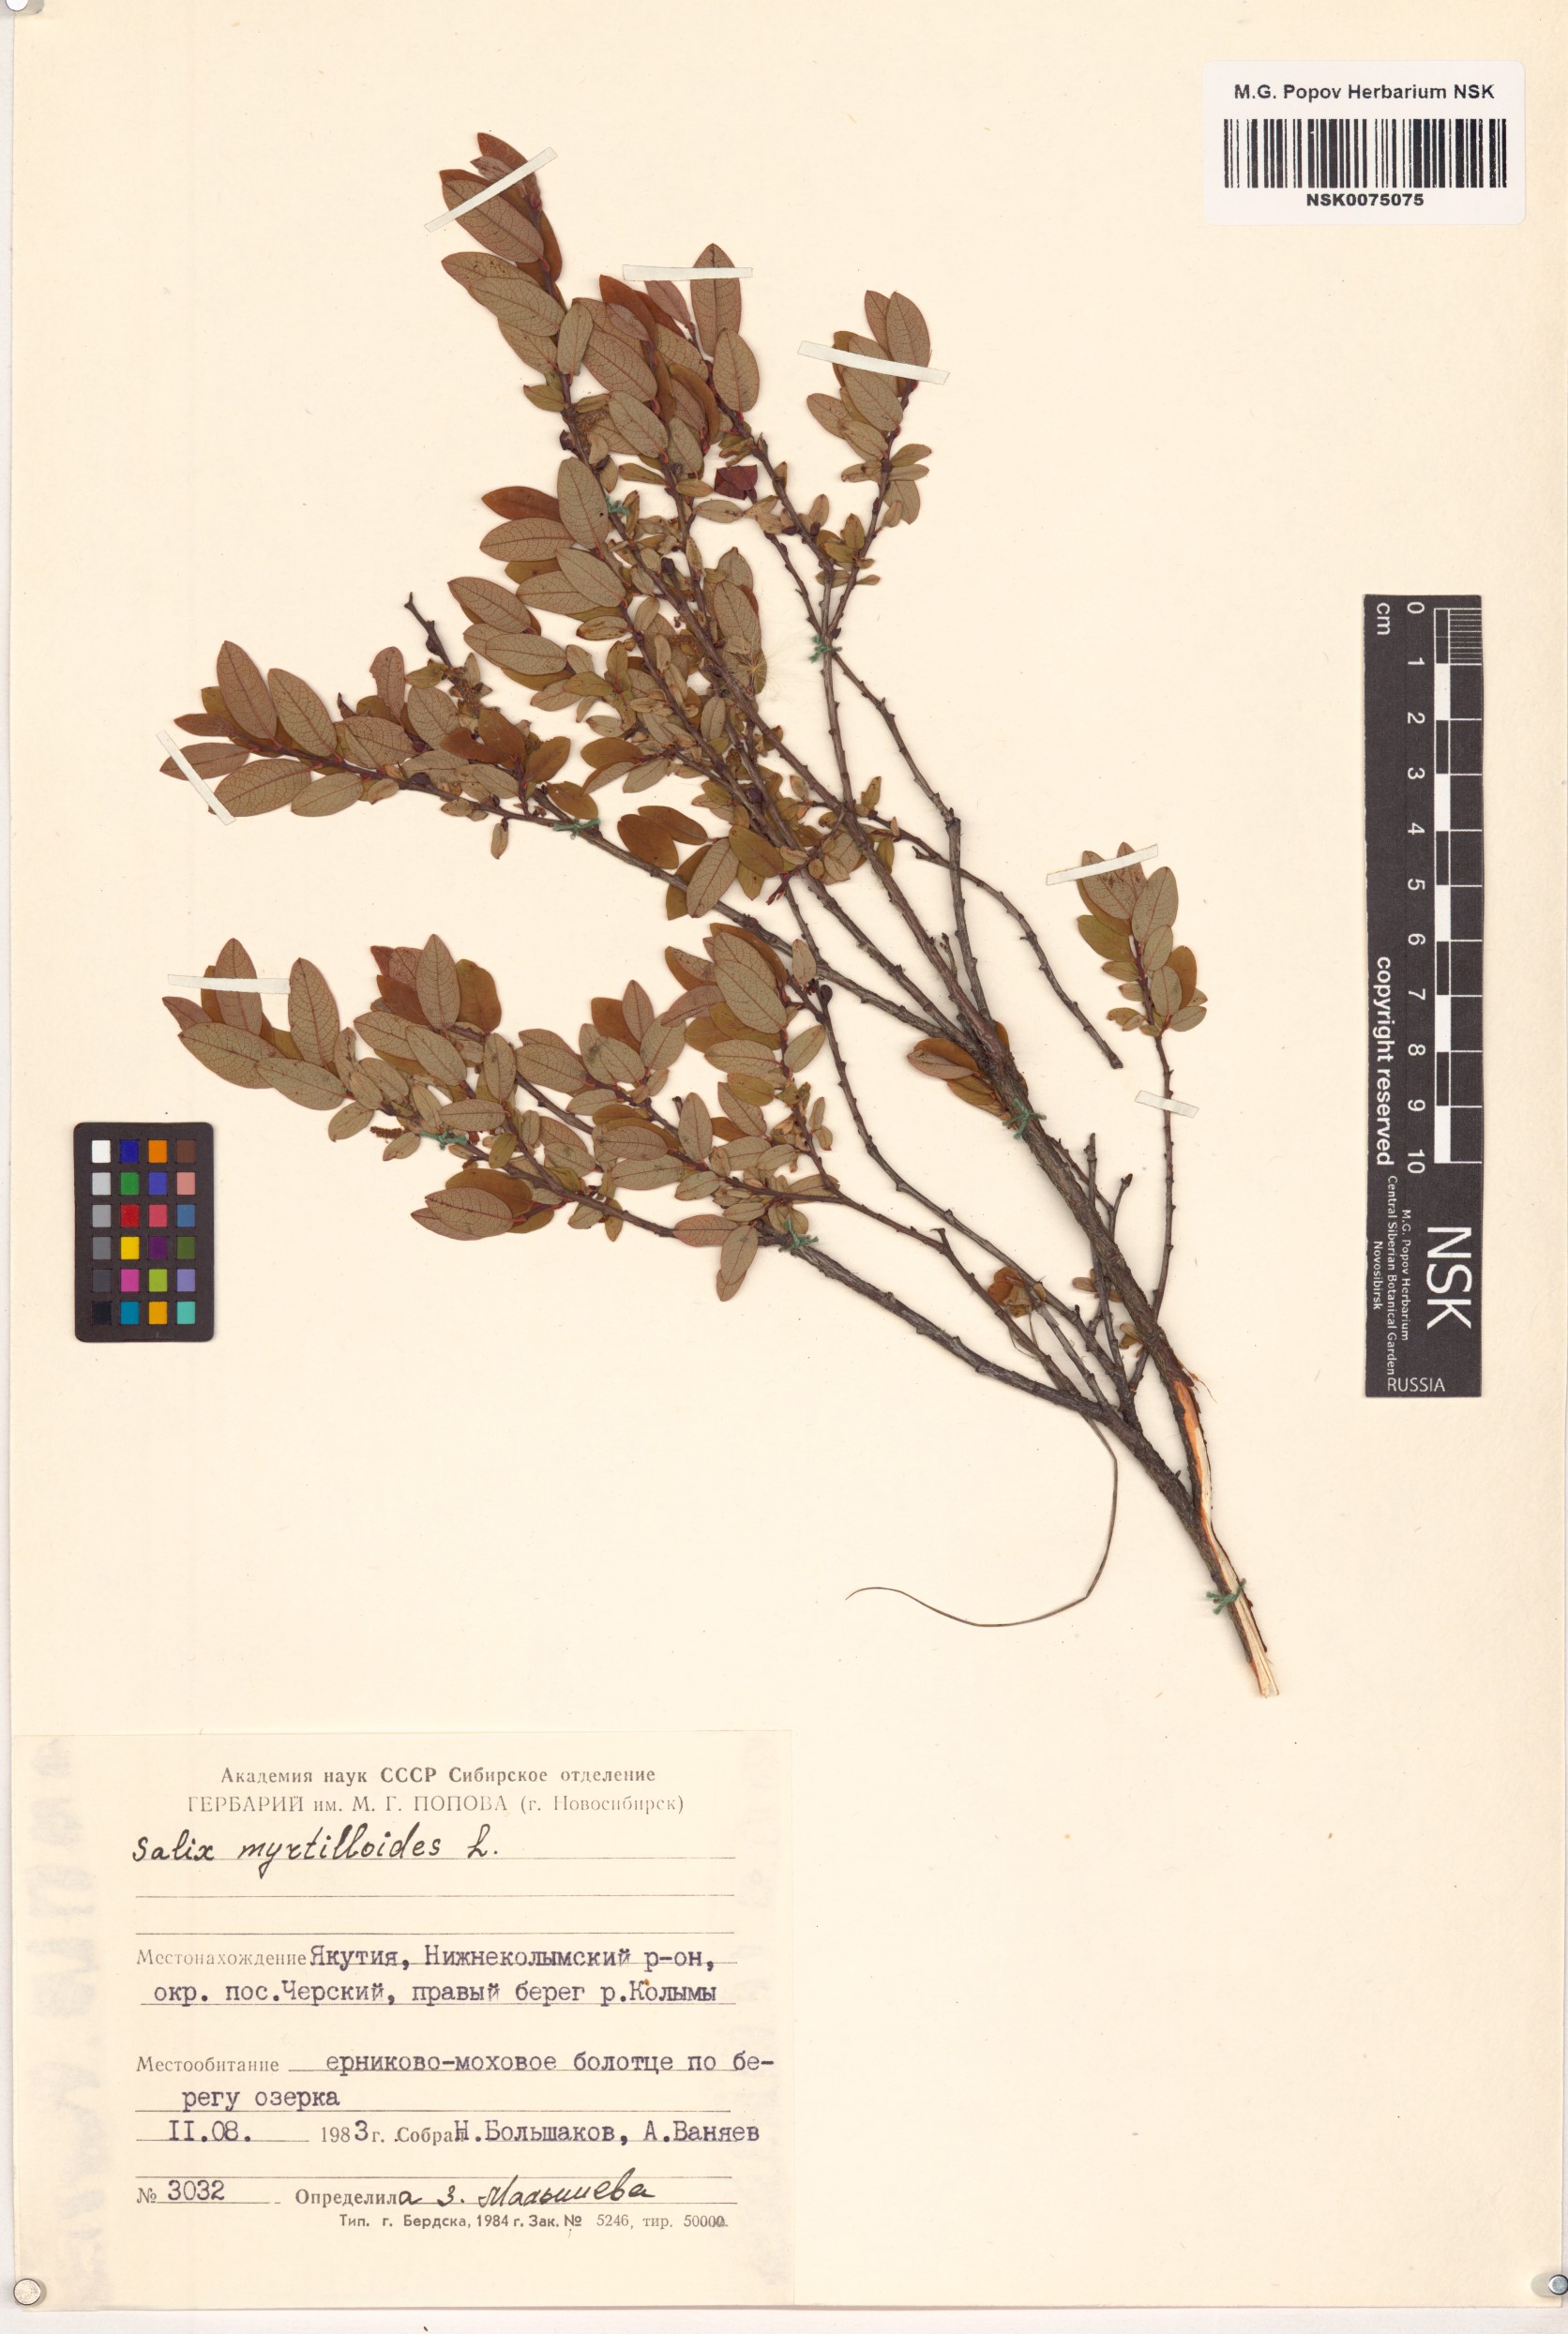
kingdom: Plantae
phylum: Tracheophyta
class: Magnoliopsida
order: Malpighiales
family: Salicaceae
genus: Salix
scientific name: Salix myrtilloides
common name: Myrtle-leaved willow
